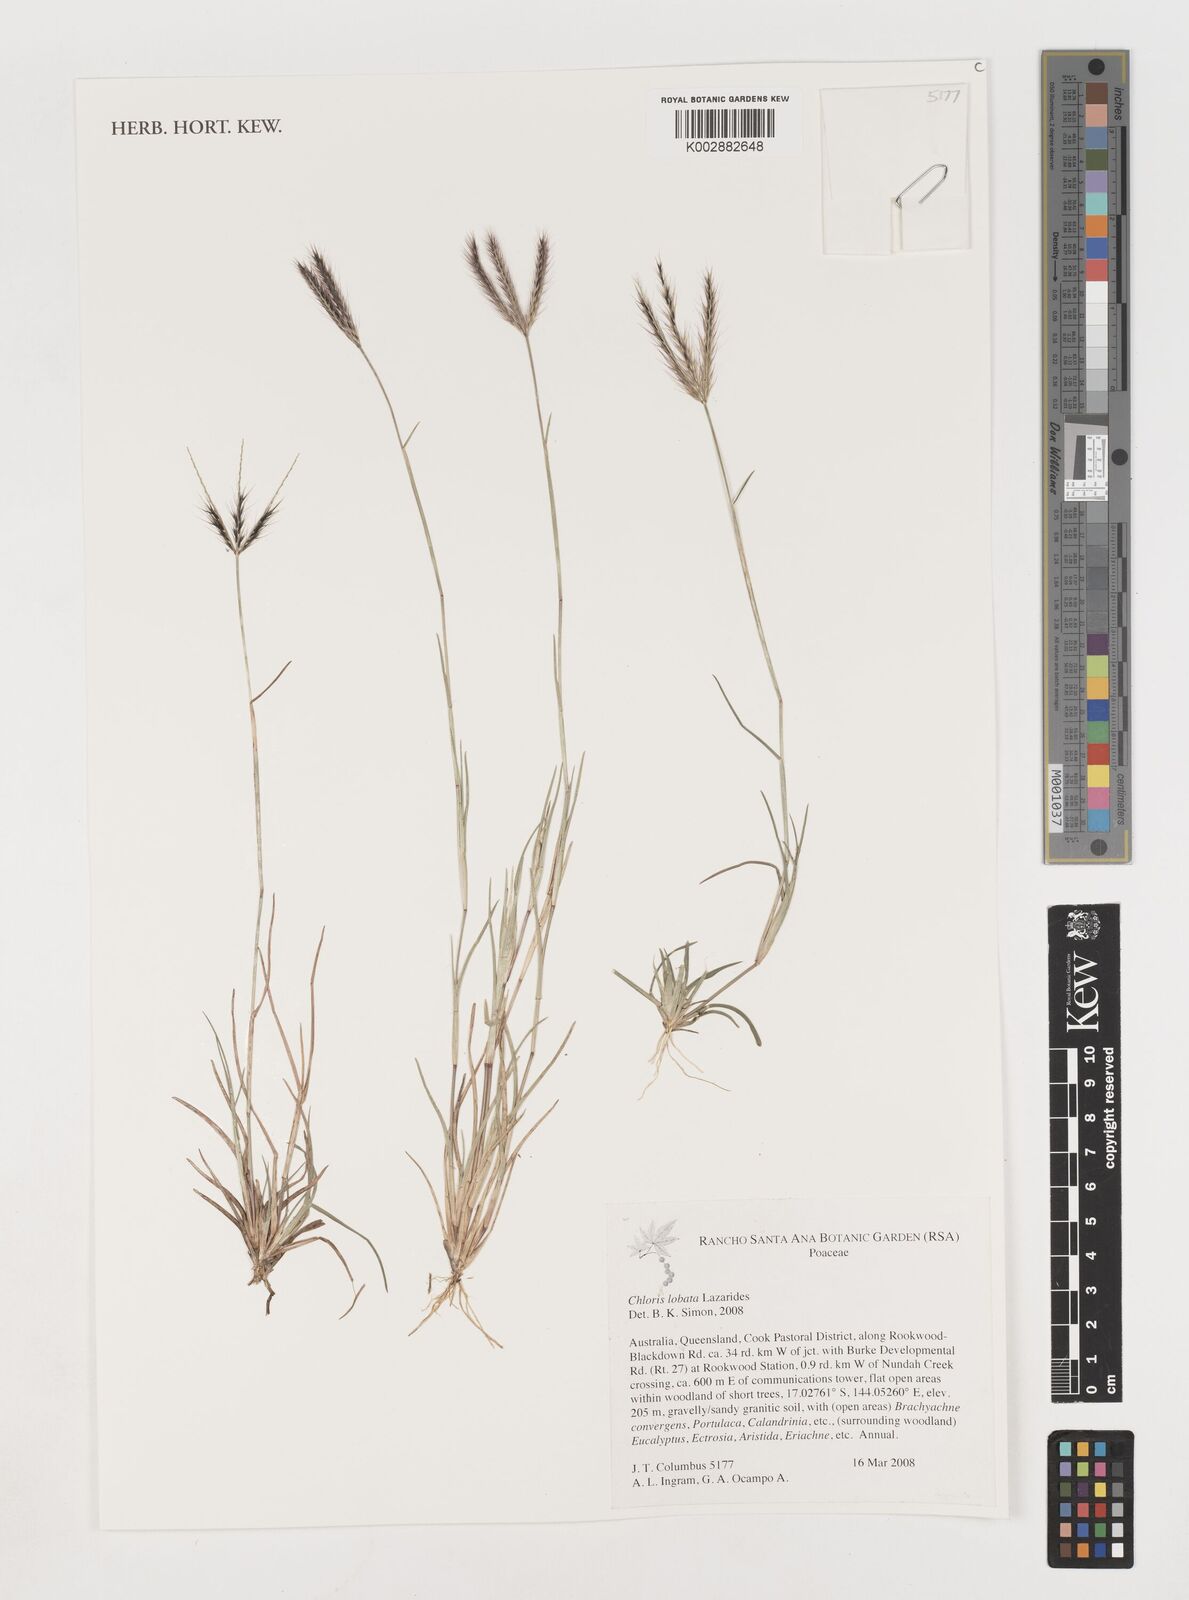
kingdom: Plantae
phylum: Tracheophyta
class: Liliopsida
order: Poales
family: Poaceae
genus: Chloris
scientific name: Chloris lobata
